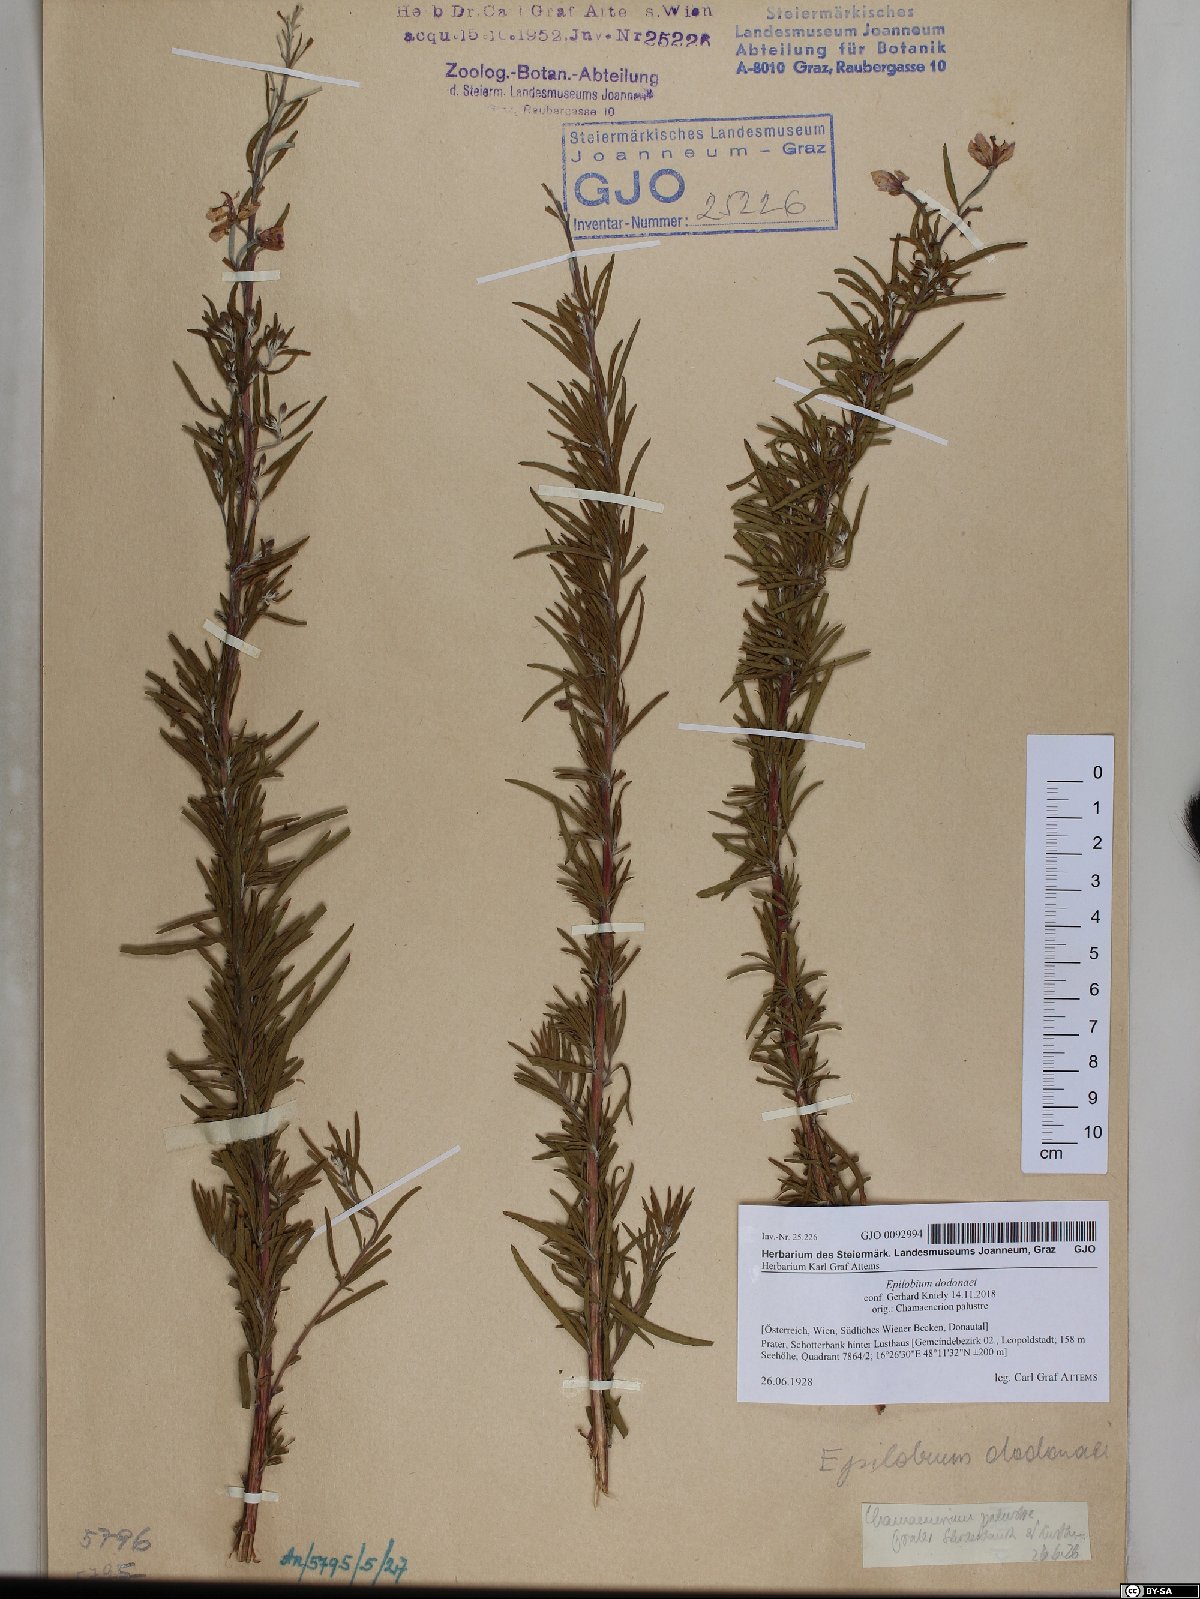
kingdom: Plantae
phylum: Tracheophyta
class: Magnoliopsida
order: Myrtales
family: Onagraceae
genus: Chamaenerion
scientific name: Chamaenerion dodonaei
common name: Rosemary-leaved willowherb
